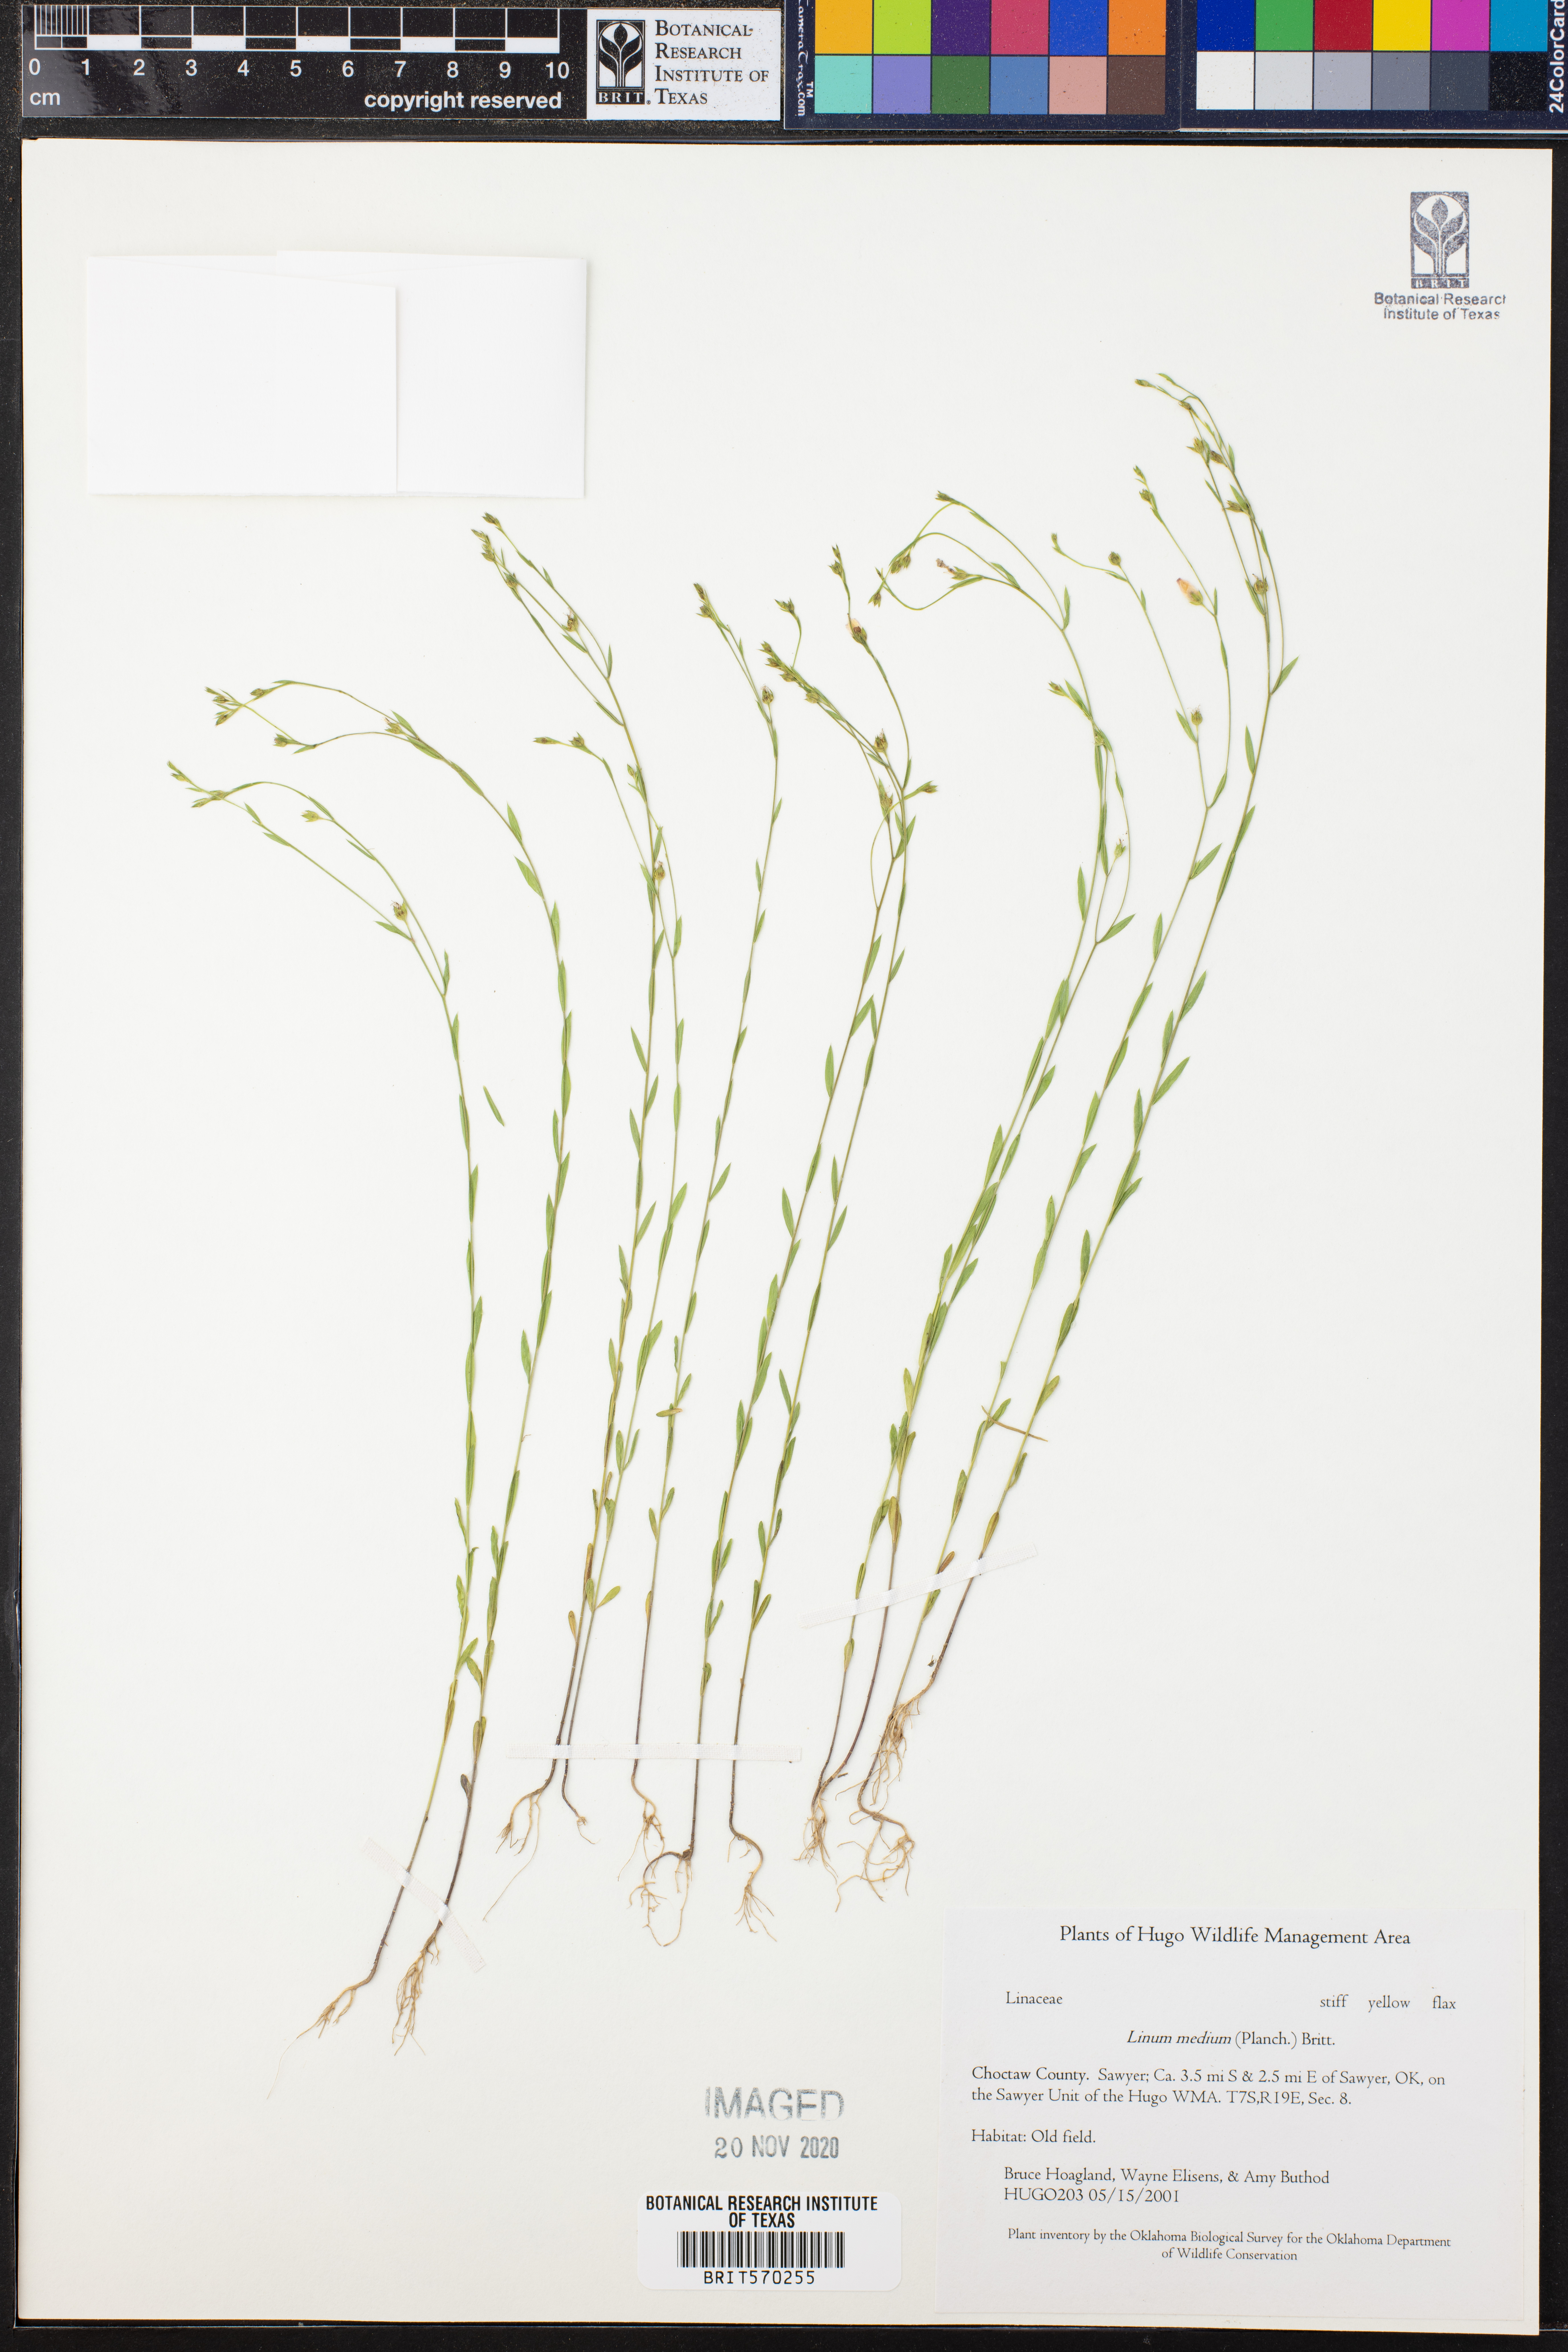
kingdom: Plantae
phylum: Tracheophyta
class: Magnoliopsida
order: Malpighiales
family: Linaceae
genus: Linum
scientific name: Linum medium
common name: Stiff yellow flax
